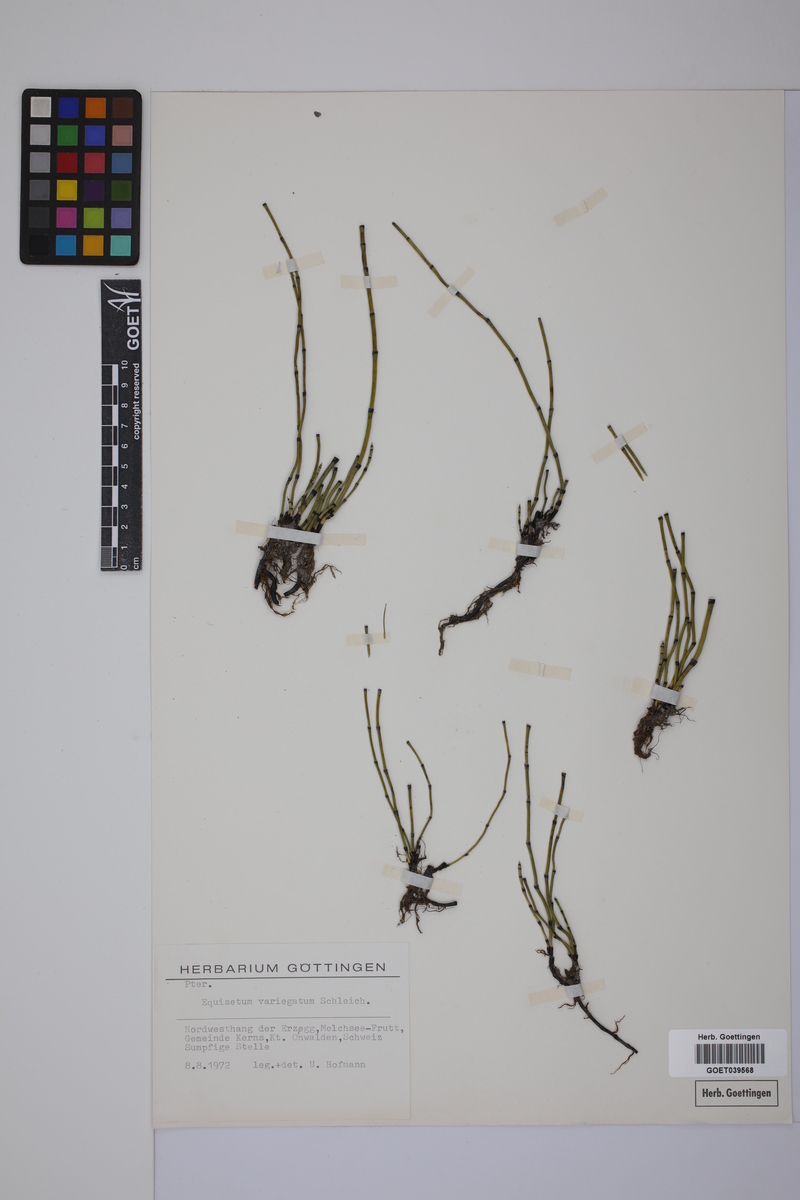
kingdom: Plantae
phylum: Tracheophyta
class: Polypodiopsida
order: Equisetales
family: Equisetaceae
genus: Equisetum
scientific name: Equisetum variegatum
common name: Variegated horsetail
